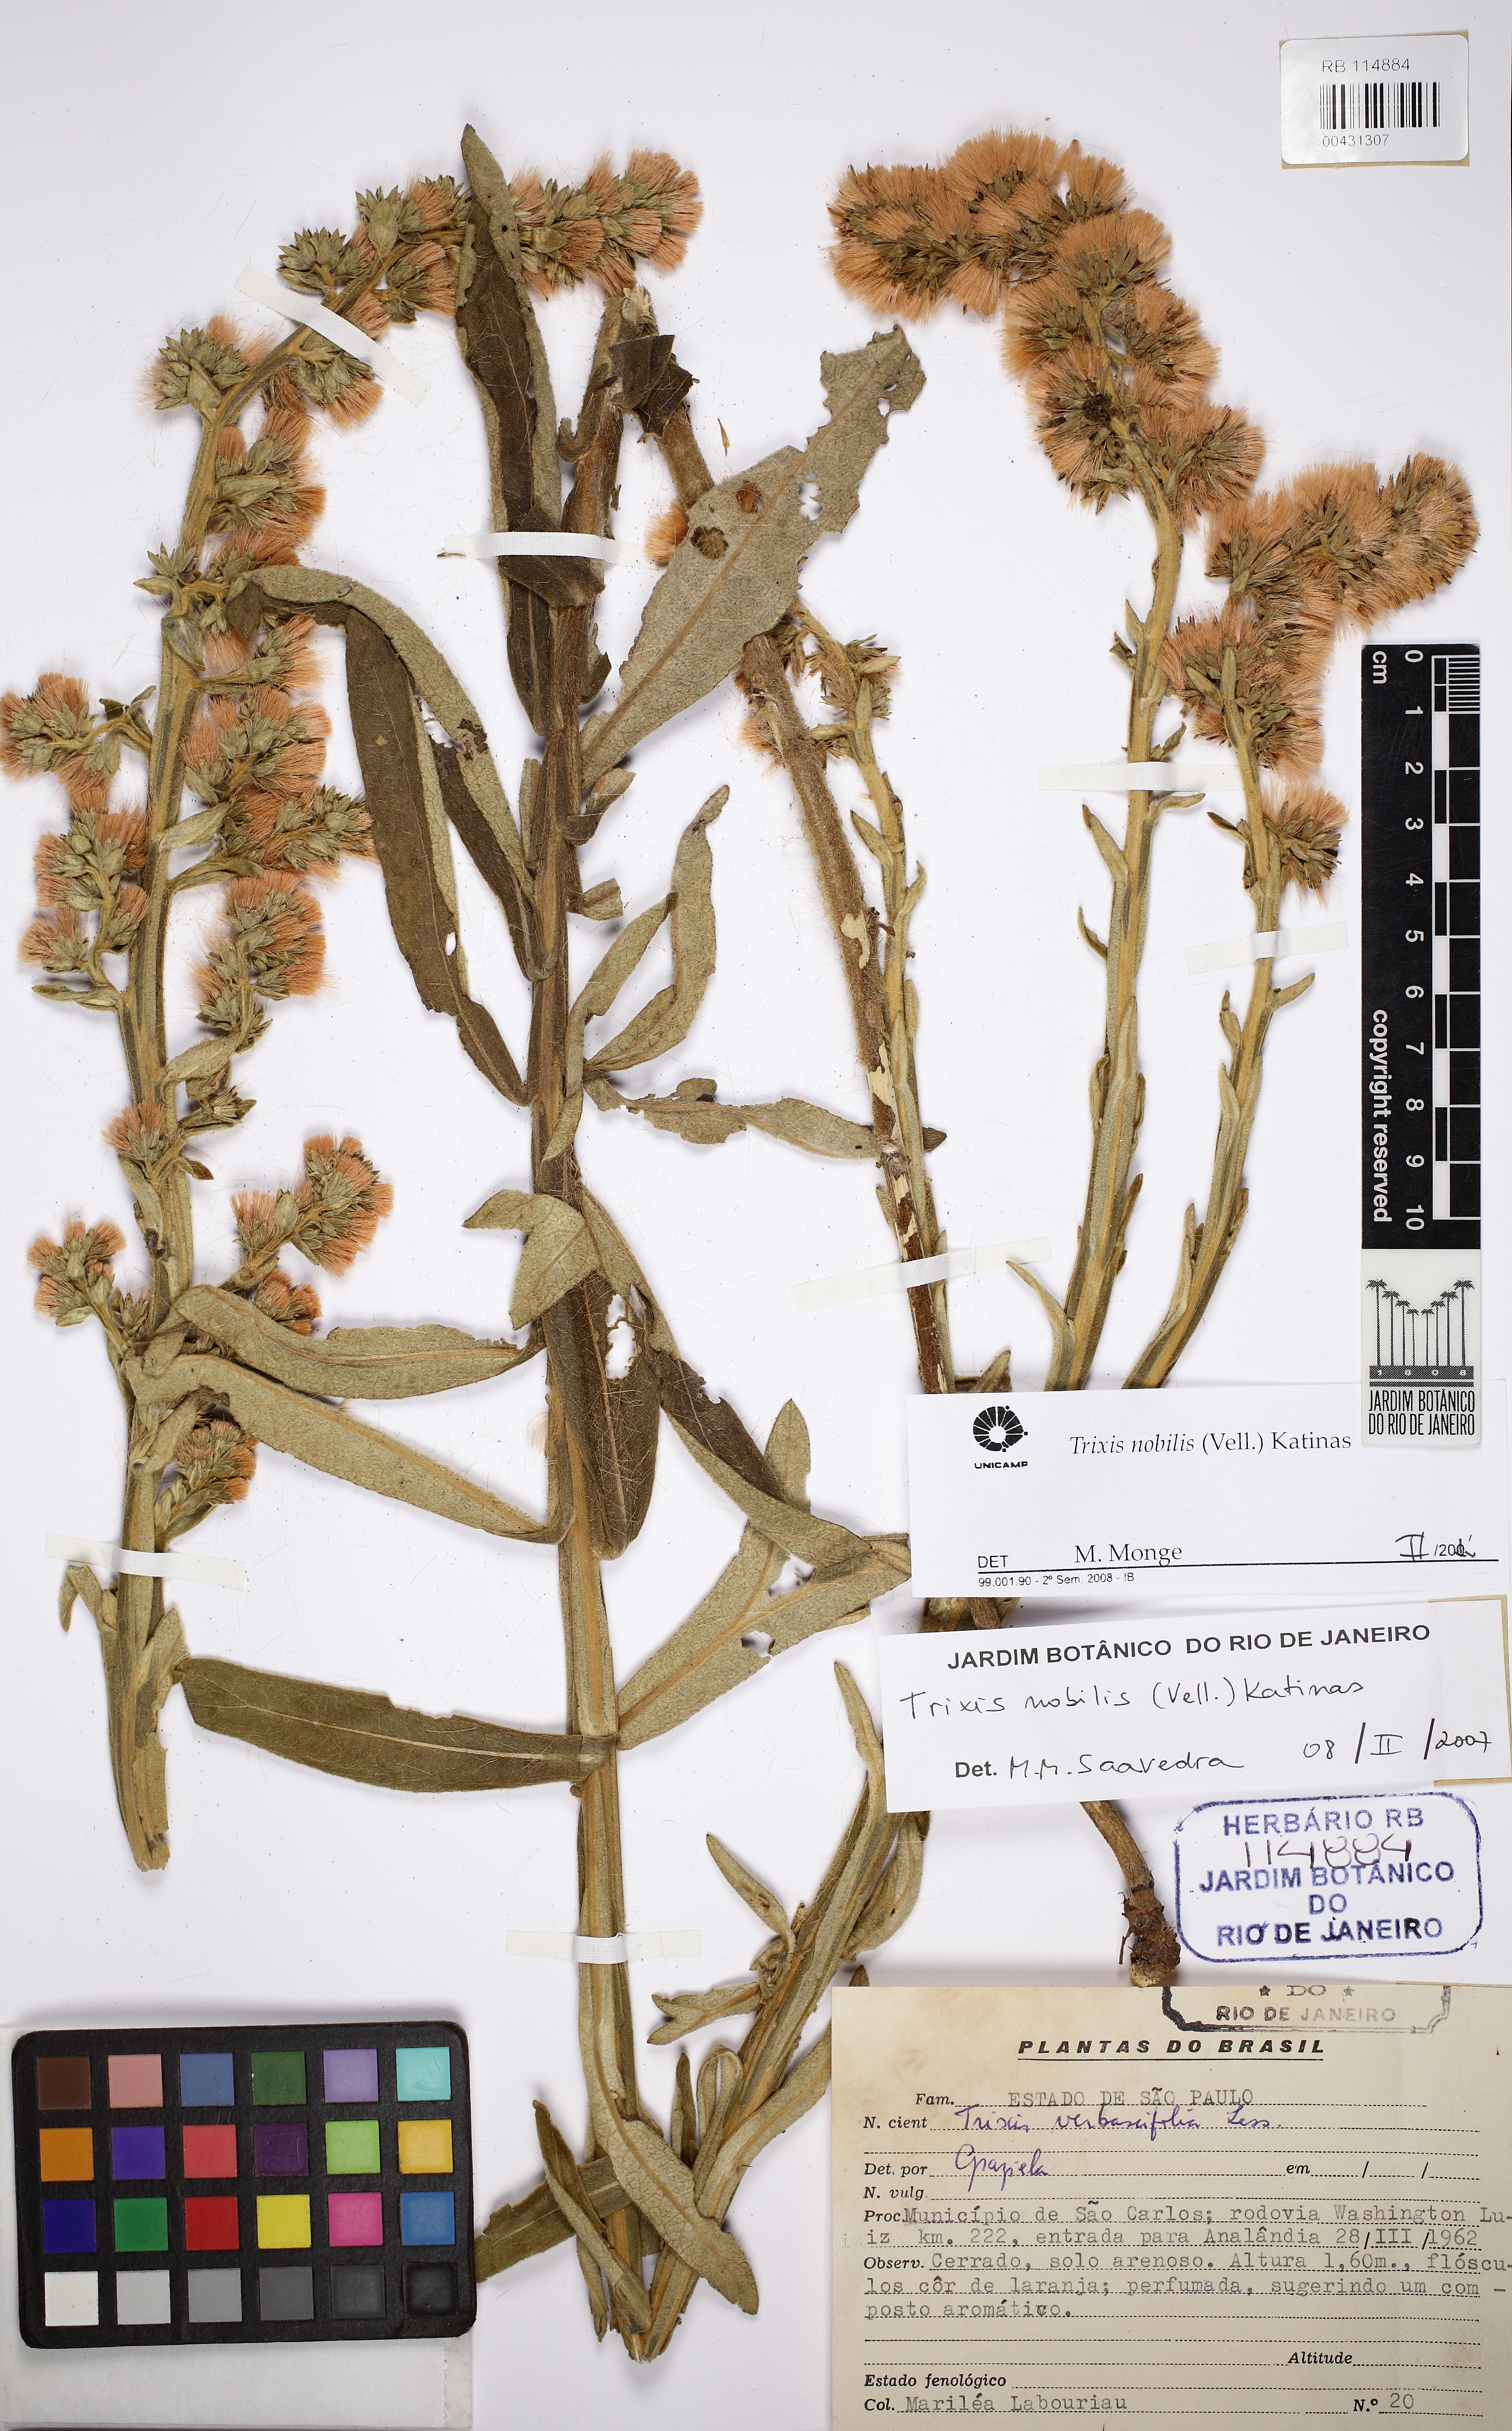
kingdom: Plantae
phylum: Tracheophyta
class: Magnoliopsida
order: Asterales
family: Asteraceae
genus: Trixis
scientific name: Trixis nobilis
